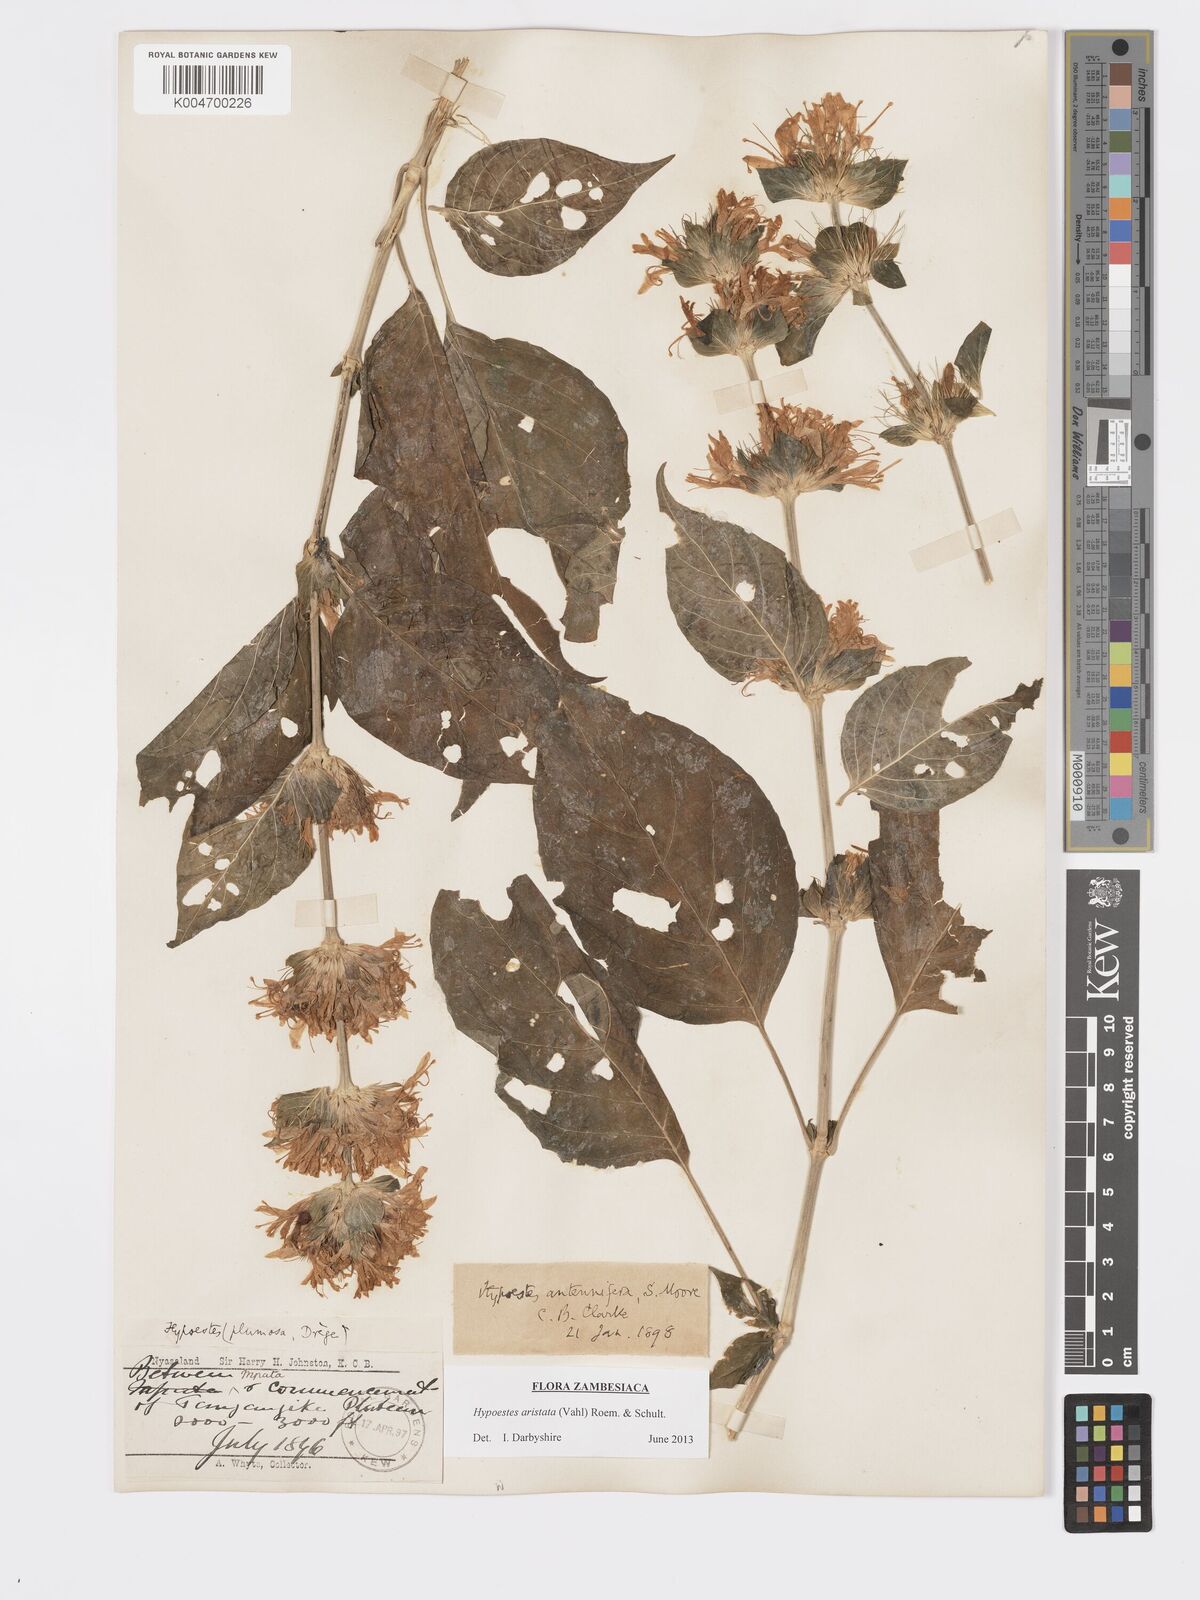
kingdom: Plantae
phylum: Tracheophyta
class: Magnoliopsida
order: Lamiales
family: Acanthaceae
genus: Hypoestes
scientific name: Hypoestes aristata
